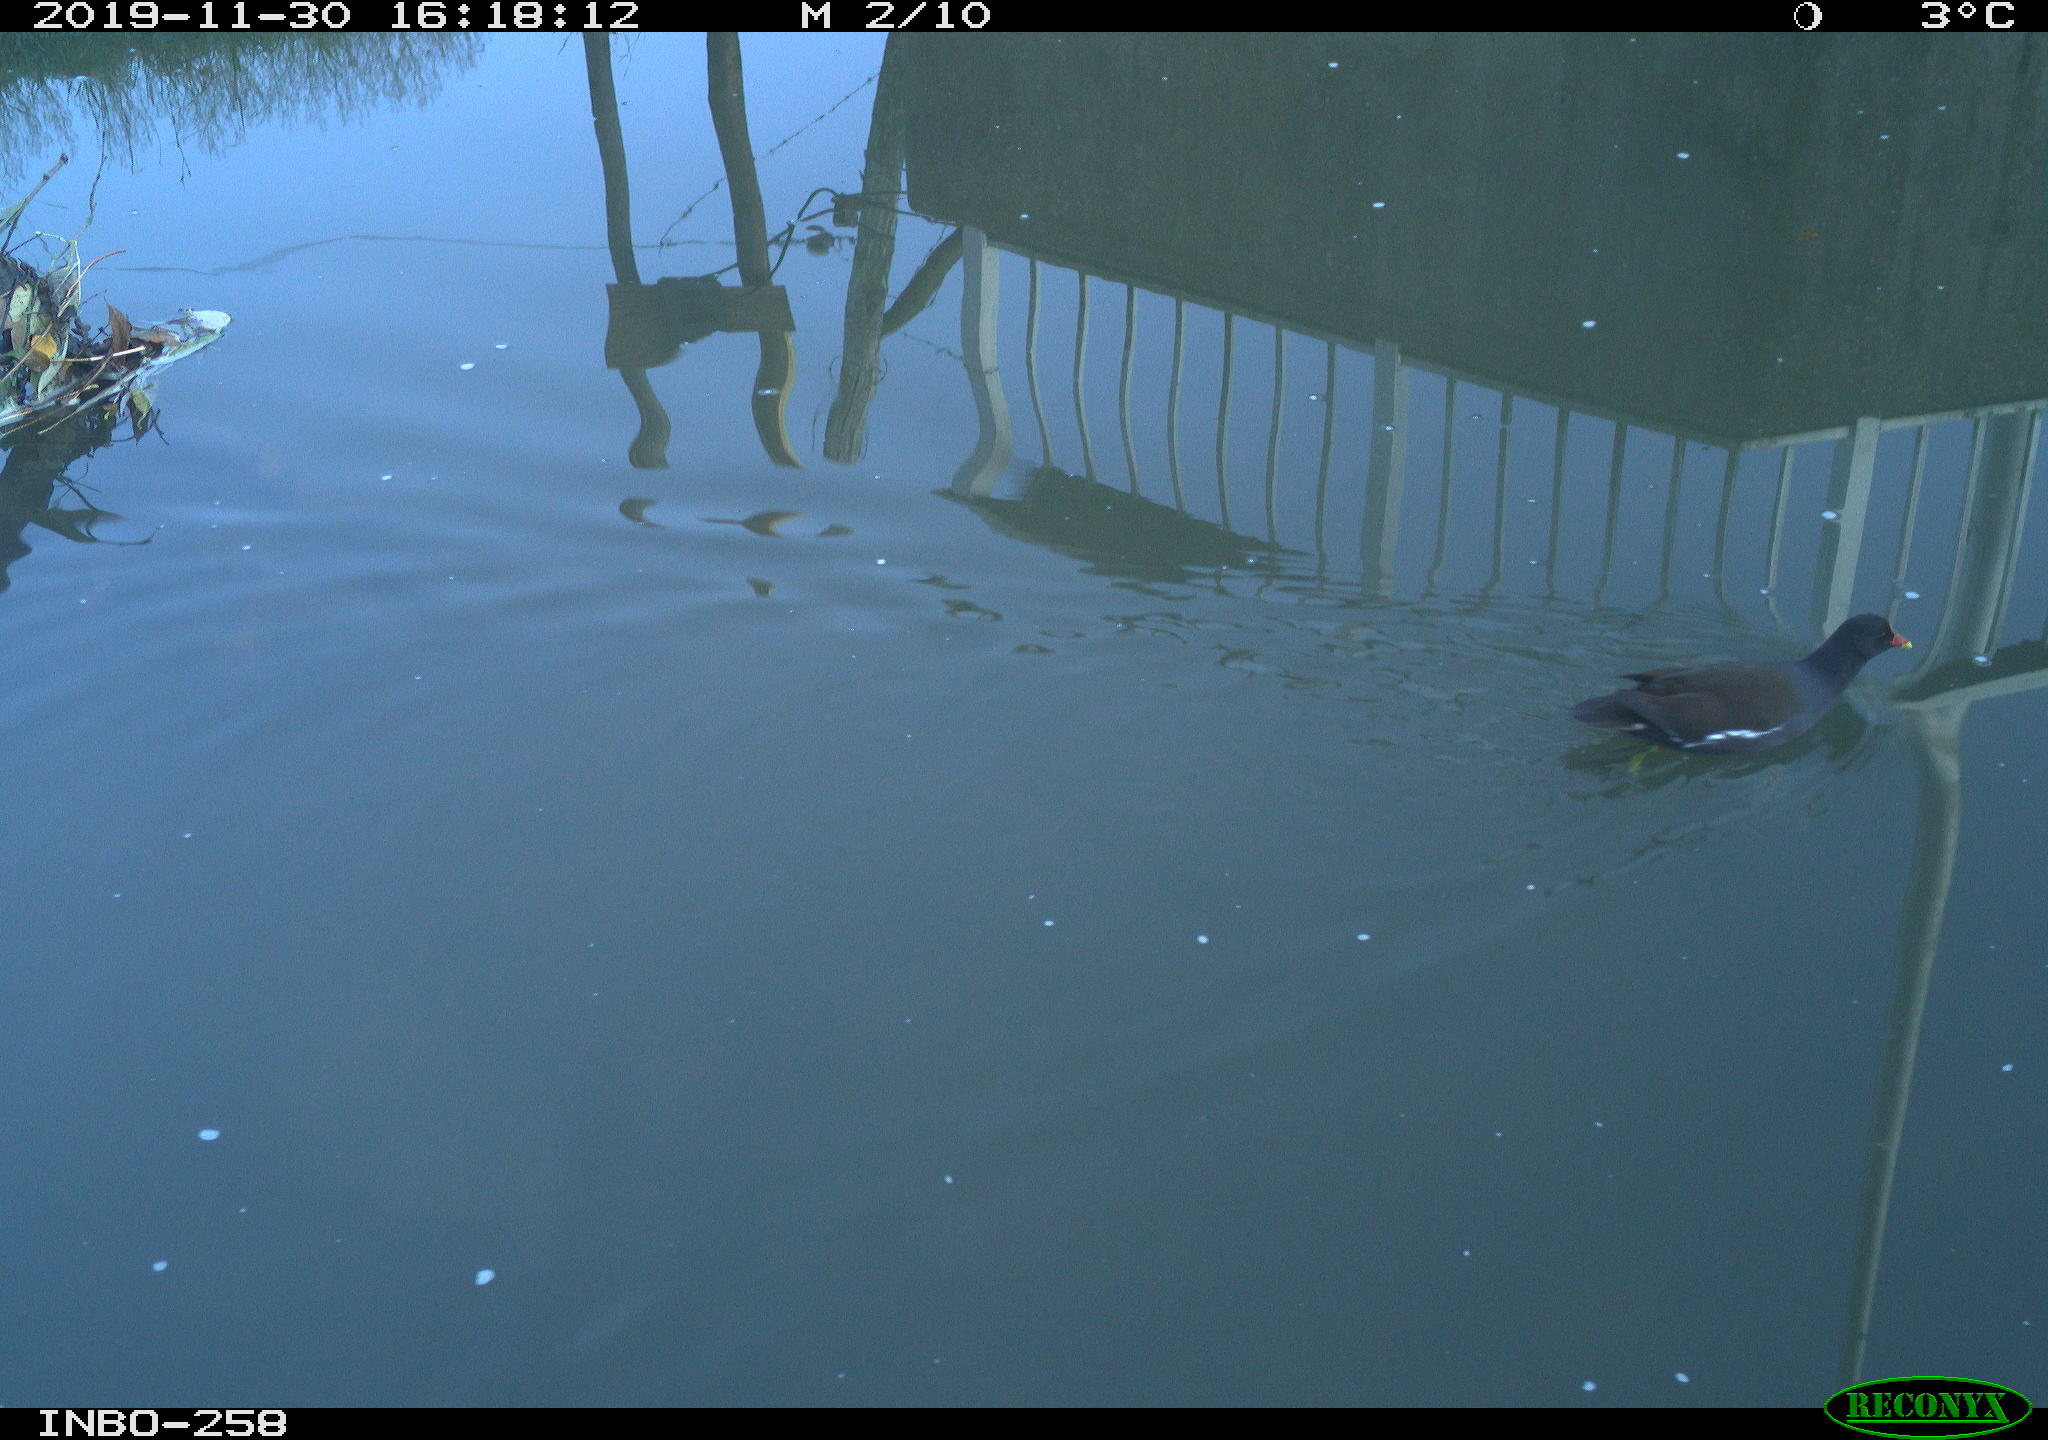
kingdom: Animalia
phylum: Chordata
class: Aves
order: Gruiformes
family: Rallidae
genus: Gallinula
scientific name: Gallinula chloropus
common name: Common moorhen
